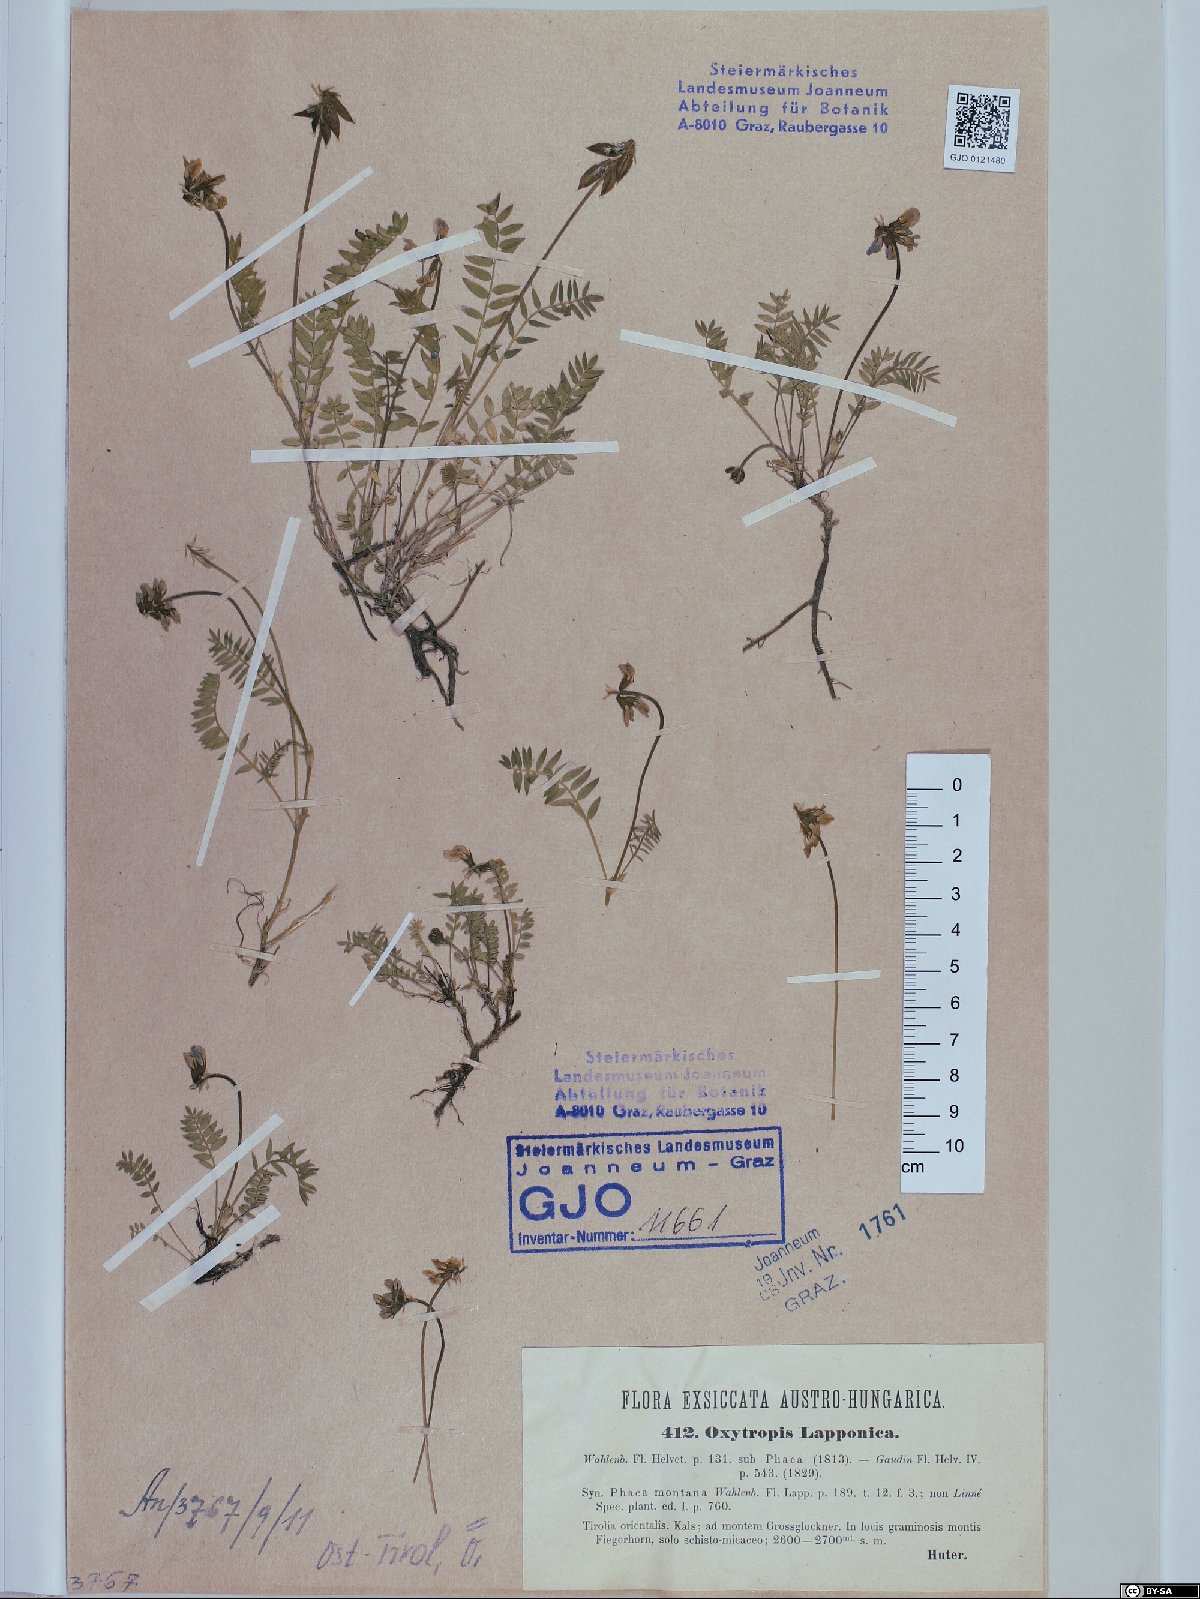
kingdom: Plantae
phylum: Tracheophyta
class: Magnoliopsida
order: Fabales
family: Fabaceae
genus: Oxytropis
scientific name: Oxytropis lapponica
